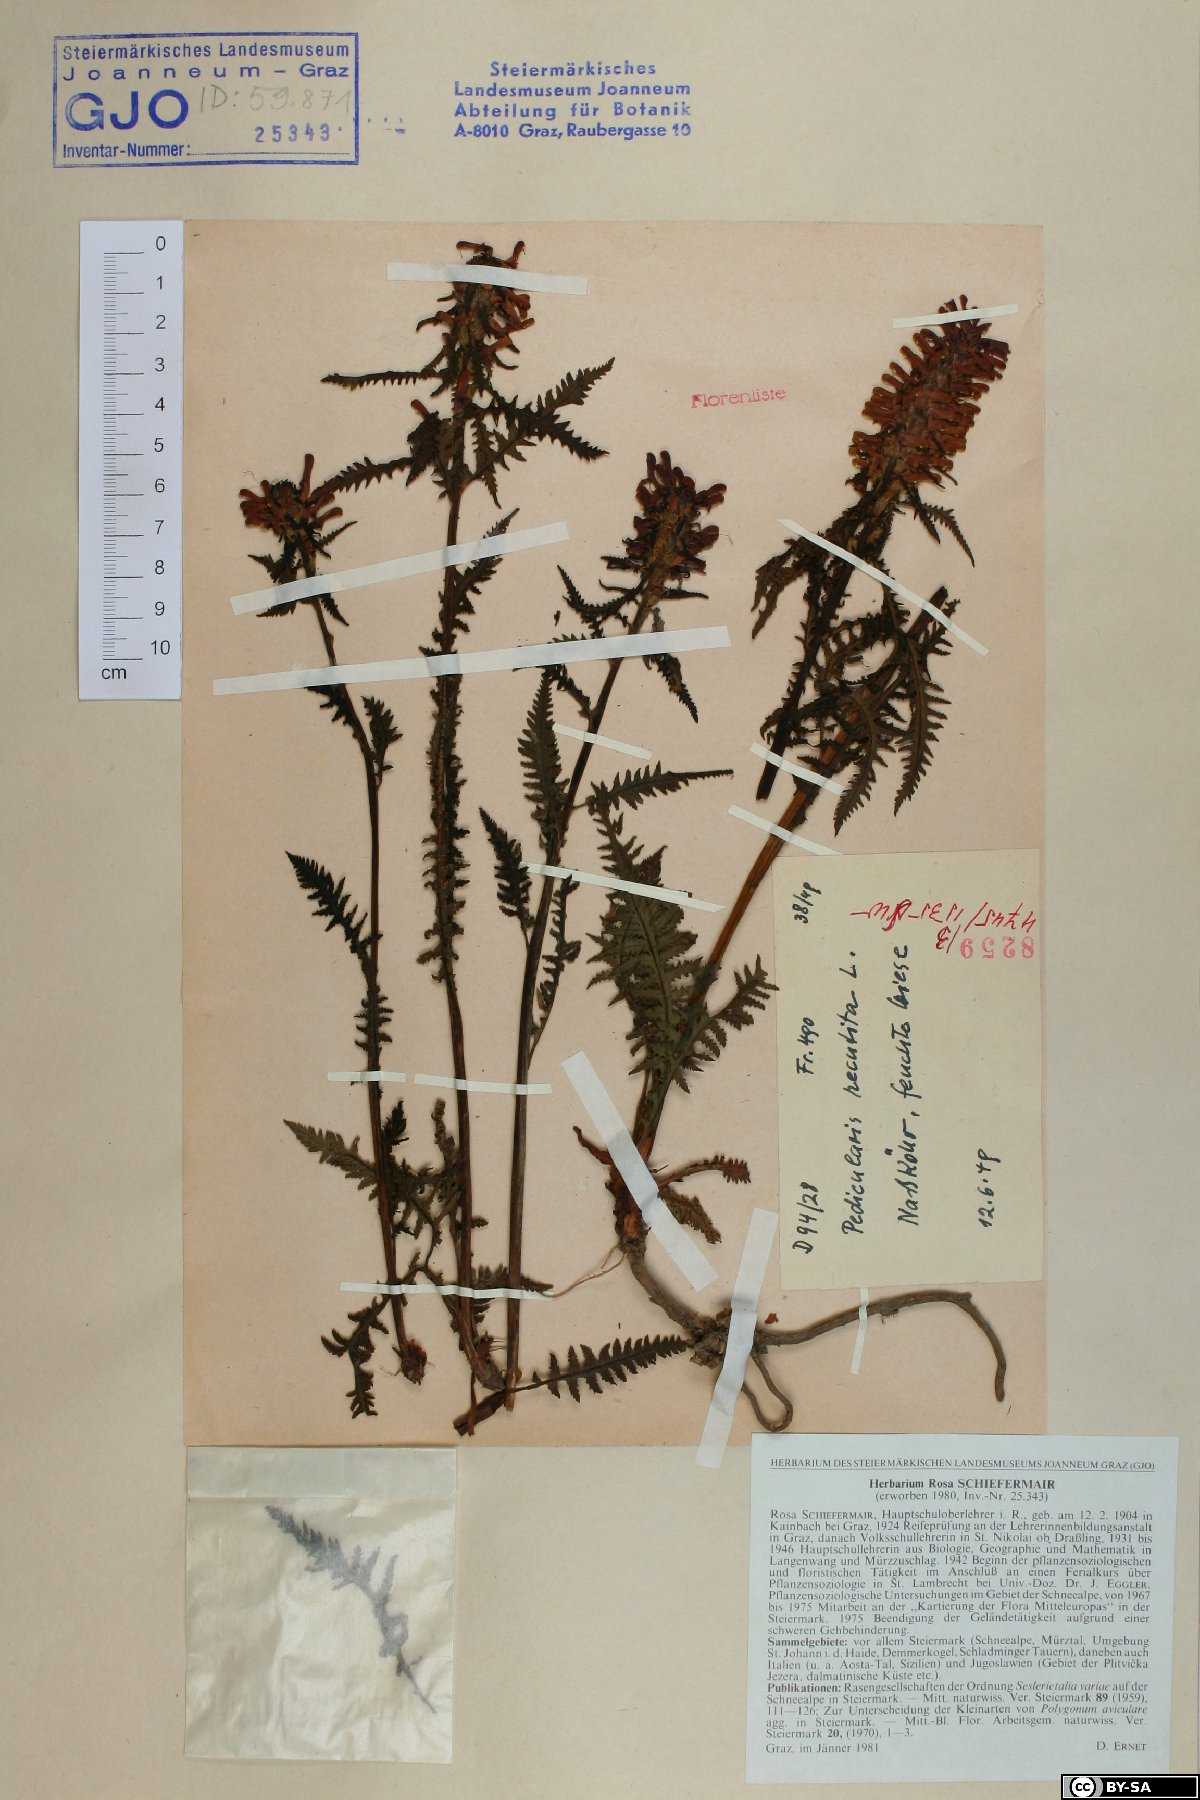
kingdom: Plantae
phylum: Tracheophyta
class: Magnoliopsida
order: Lamiales
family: Orobanchaceae
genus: Pedicularis
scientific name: Pedicularis recutita
